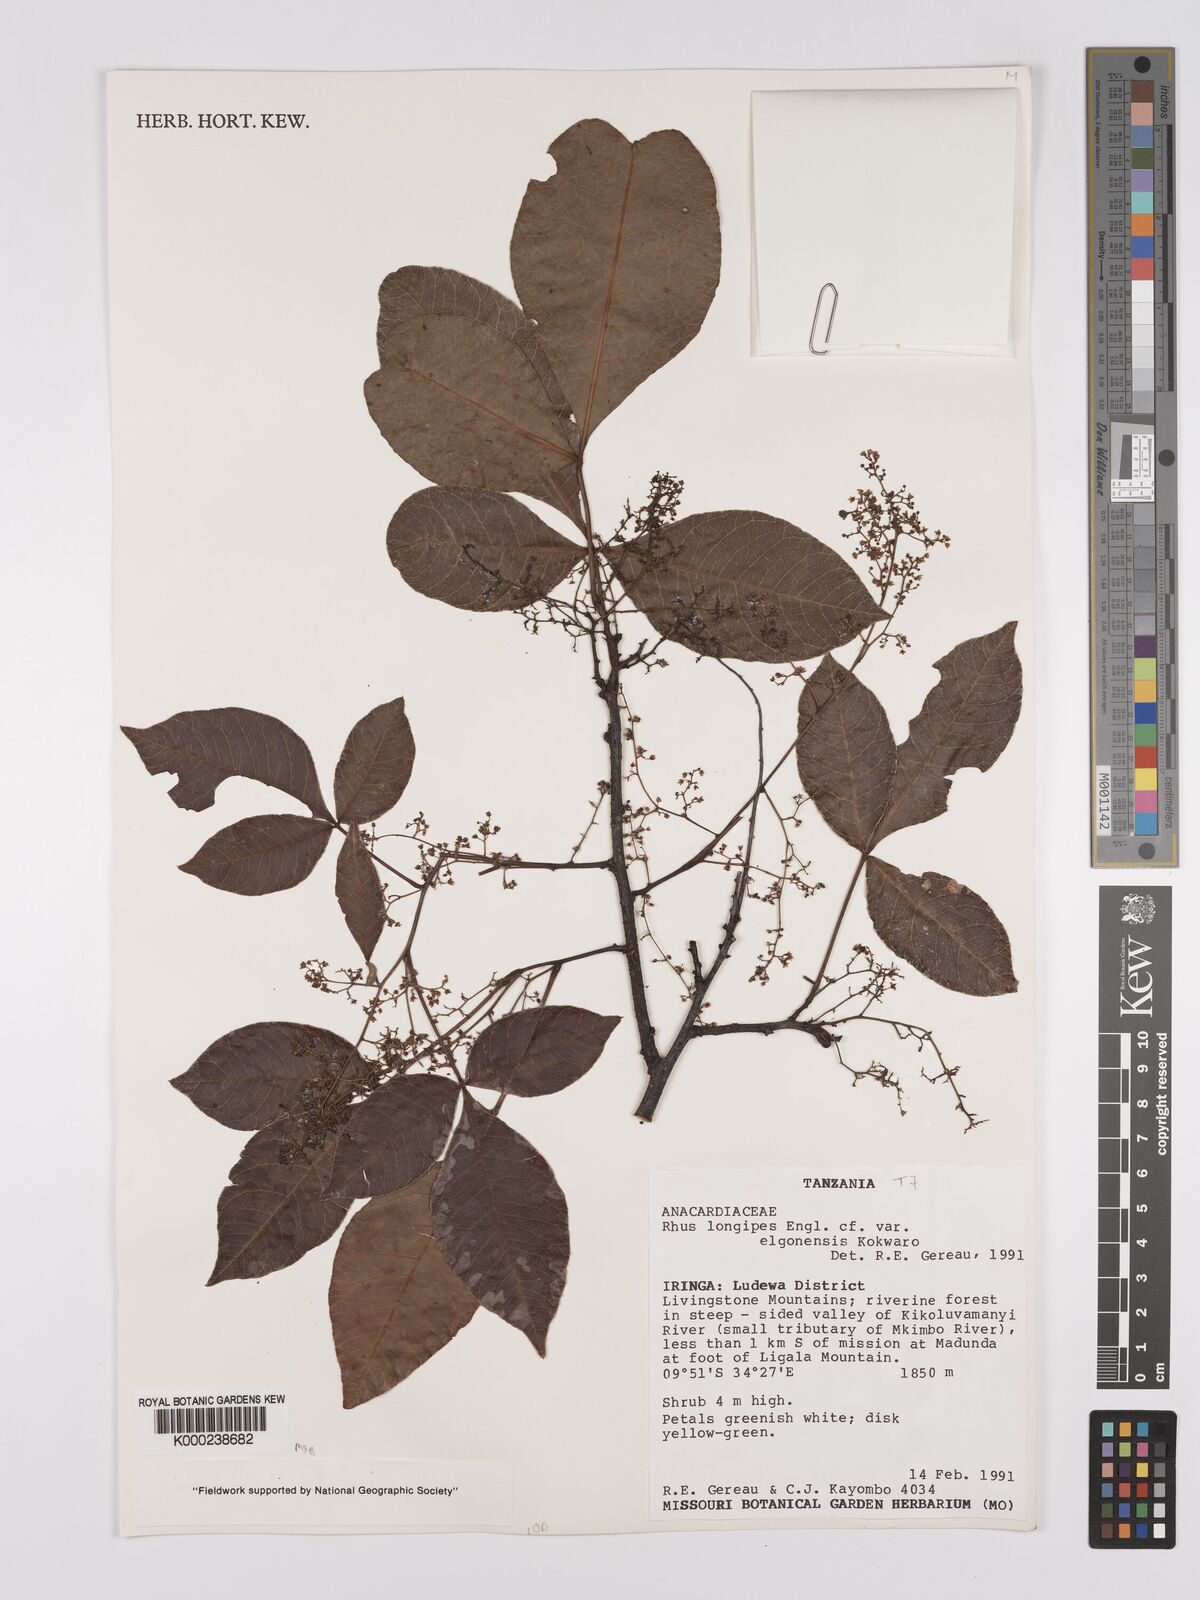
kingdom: Plantae
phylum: Tracheophyta
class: Magnoliopsida
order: Sapindales
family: Anacardiaceae
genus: Searsia
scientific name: Searsia longipes
